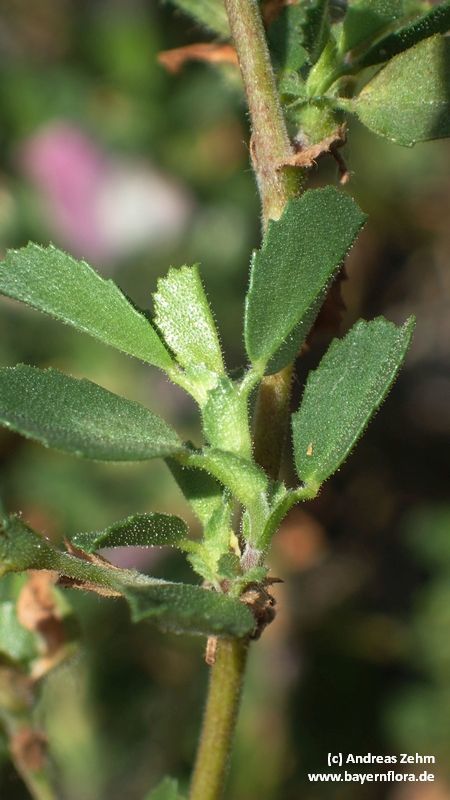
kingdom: Plantae
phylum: Tracheophyta
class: Magnoliopsida
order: Fabales
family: Fabaceae
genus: Ononis
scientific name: Ononis spinosa
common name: Spiny restharrow
